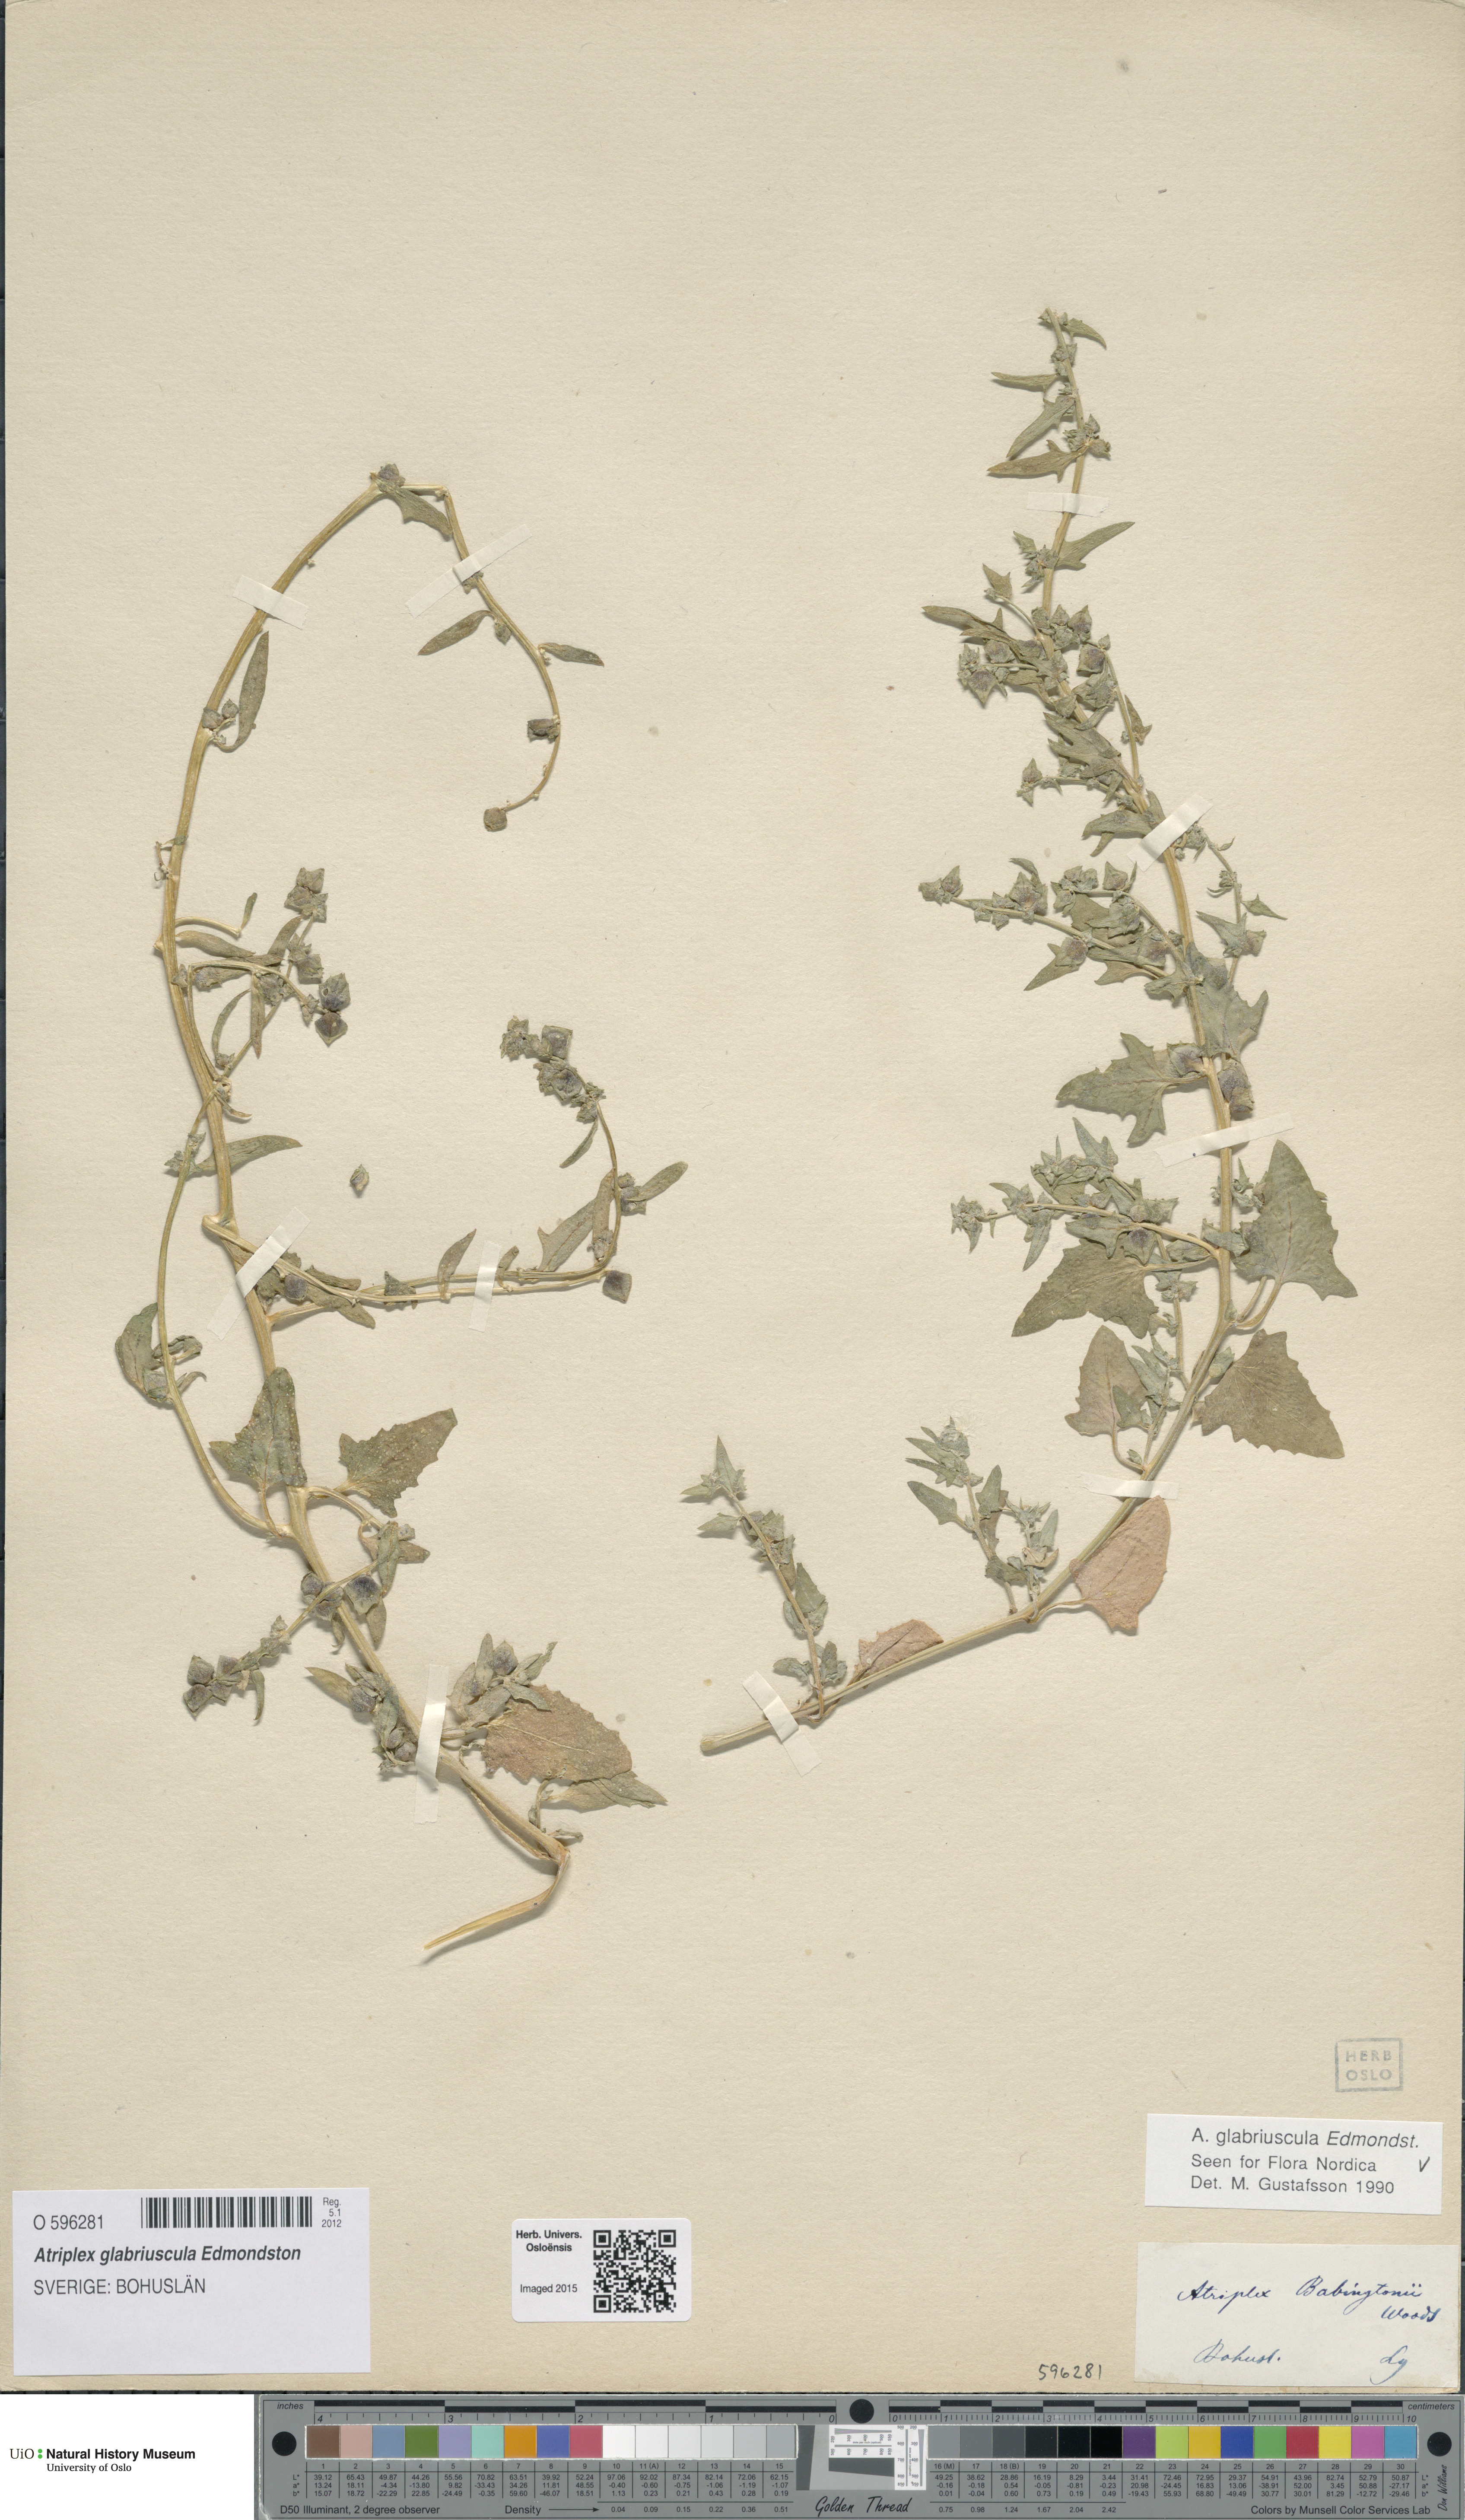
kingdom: Plantae
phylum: Tracheophyta
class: Magnoliopsida
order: Caryophyllales
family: Amaranthaceae
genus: Atriplex
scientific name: Atriplex glabriuscula
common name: Babington's orache
